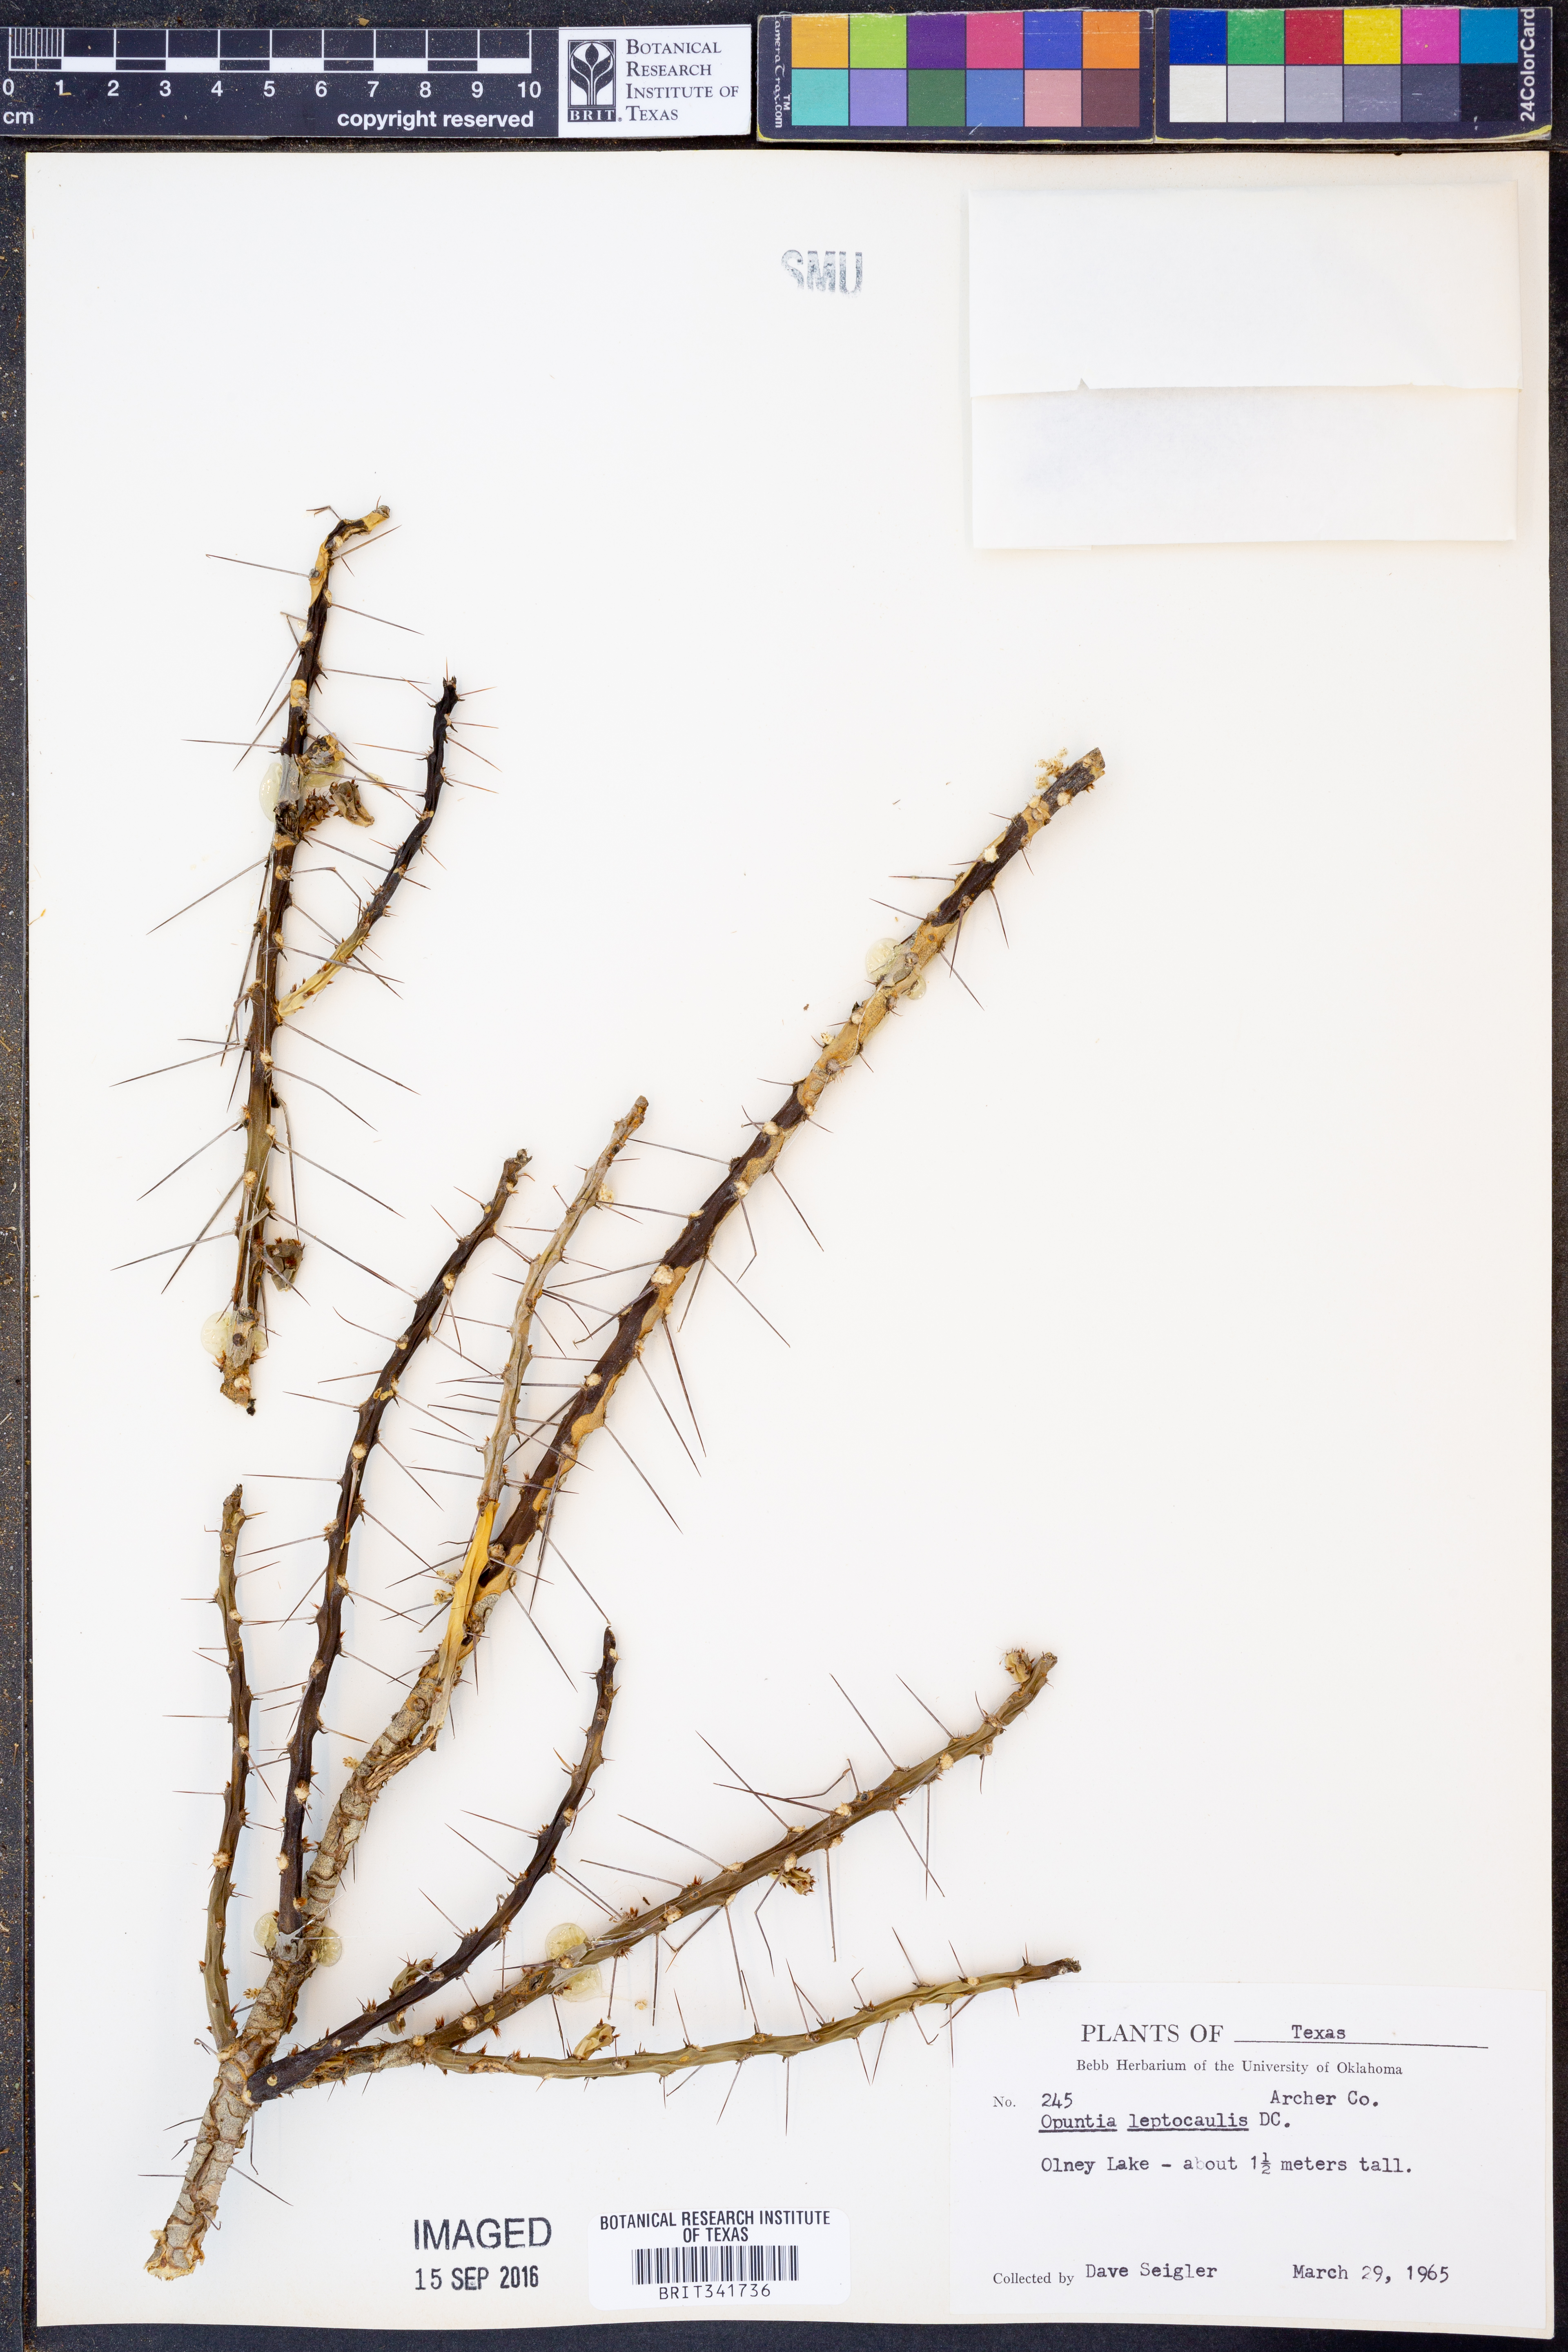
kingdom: Plantae
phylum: Tracheophyta
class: Magnoliopsida
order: Caryophyllales
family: Cactaceae
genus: Cylindropuntia
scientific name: Cylindropuntia leptocaulis
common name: Christmas cactus
